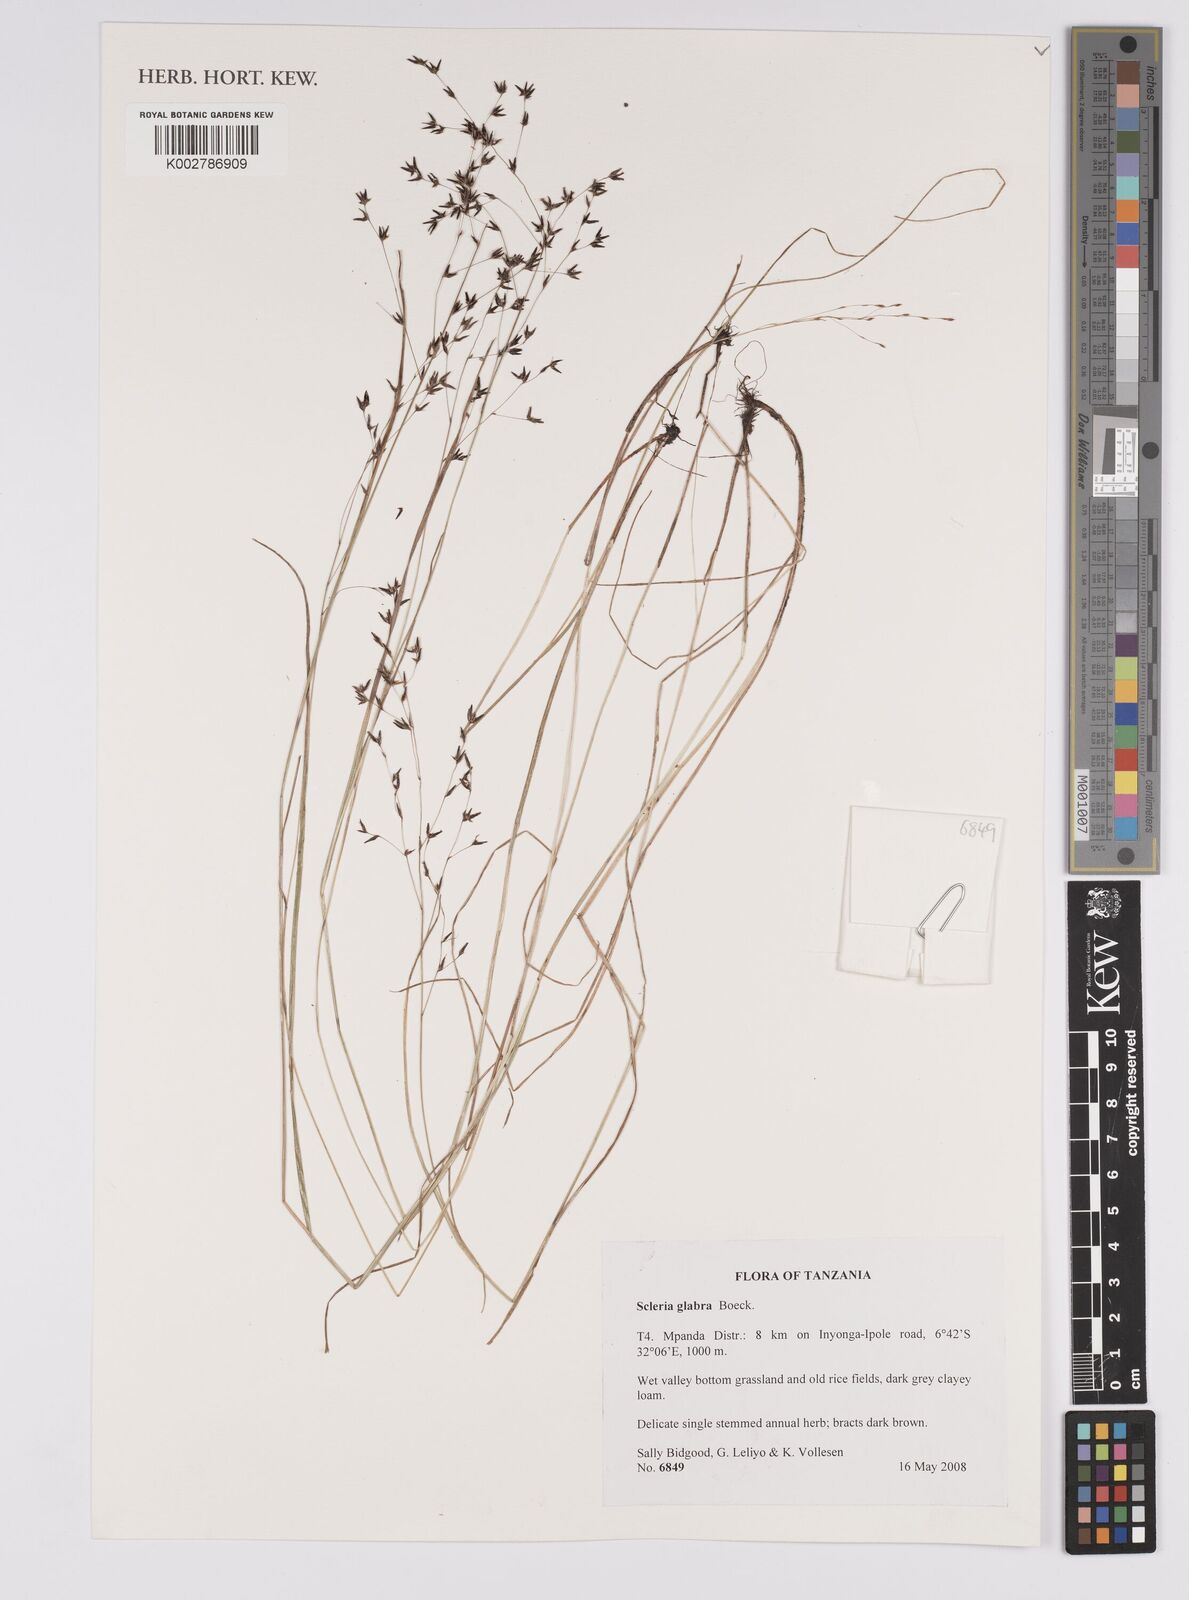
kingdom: Plantae
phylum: Tracheophyta
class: Liliopsida
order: Poales
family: Cyperaceae
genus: Scleria
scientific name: Scleria glabra
